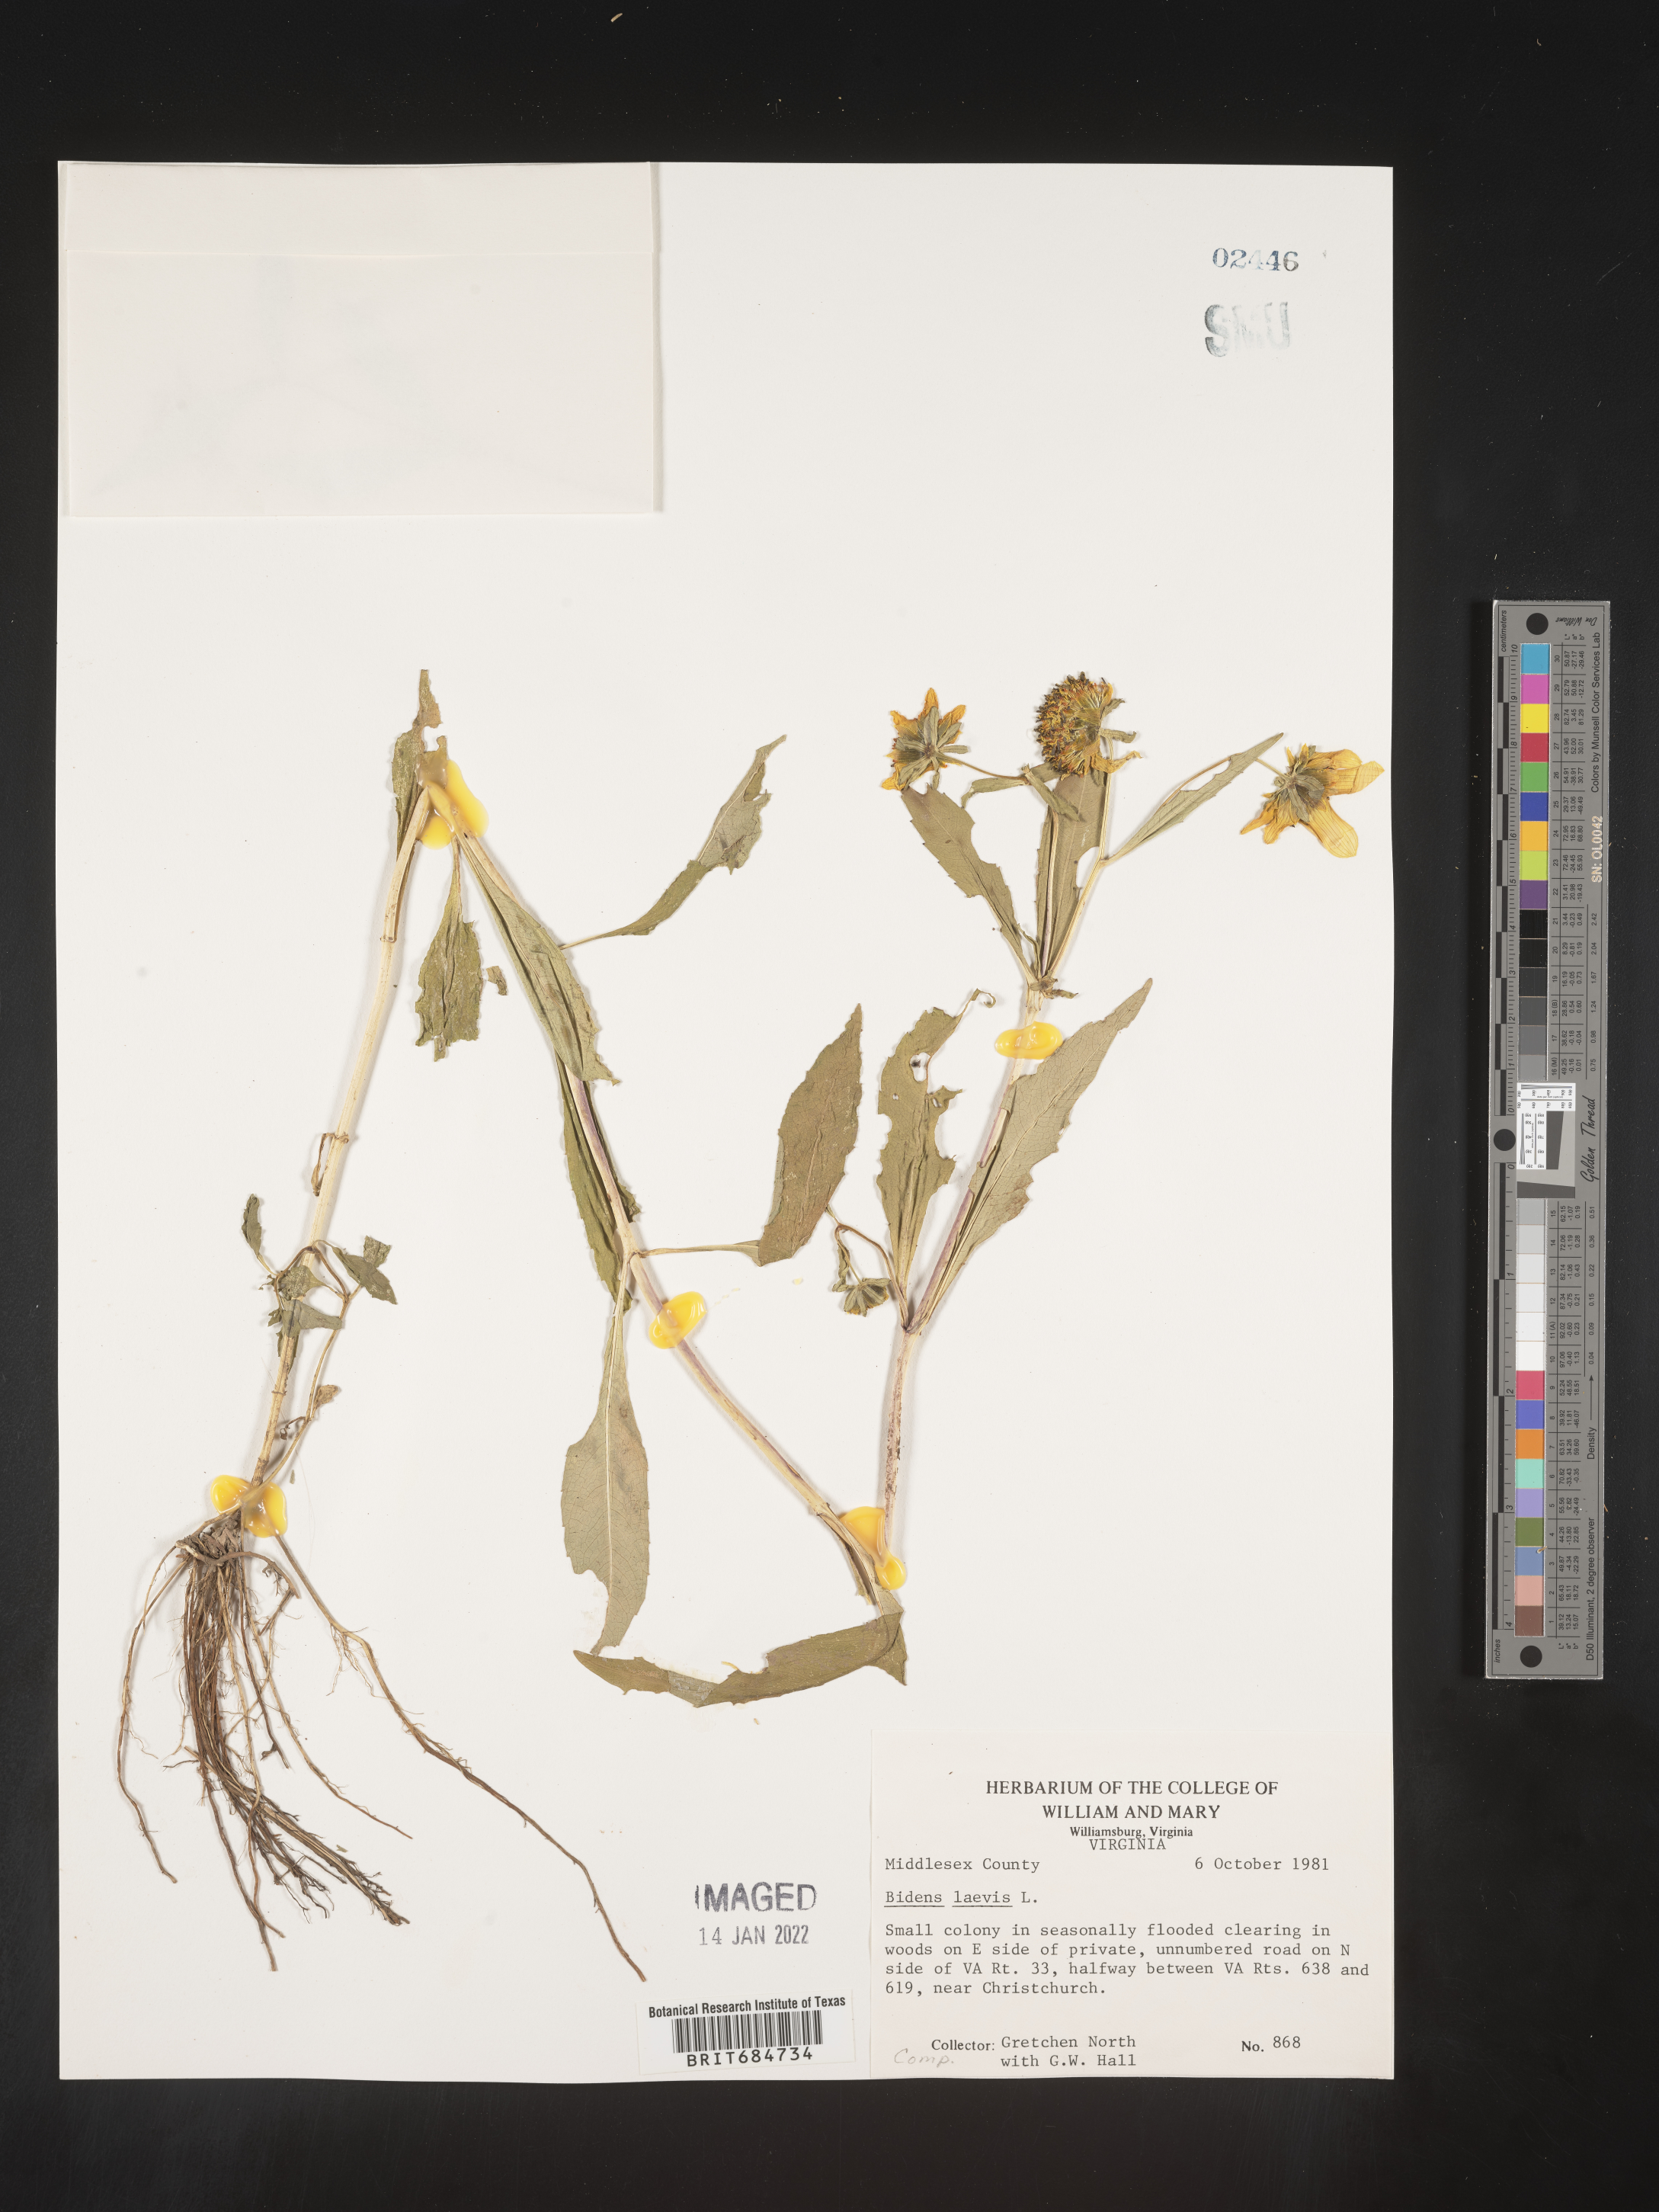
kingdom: Plantae
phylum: Tracheophyta
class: Magnoliopsida
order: Asterales
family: Asteraceae
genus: Bidens
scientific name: Bidens laevis
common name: Larger bur-marigold
